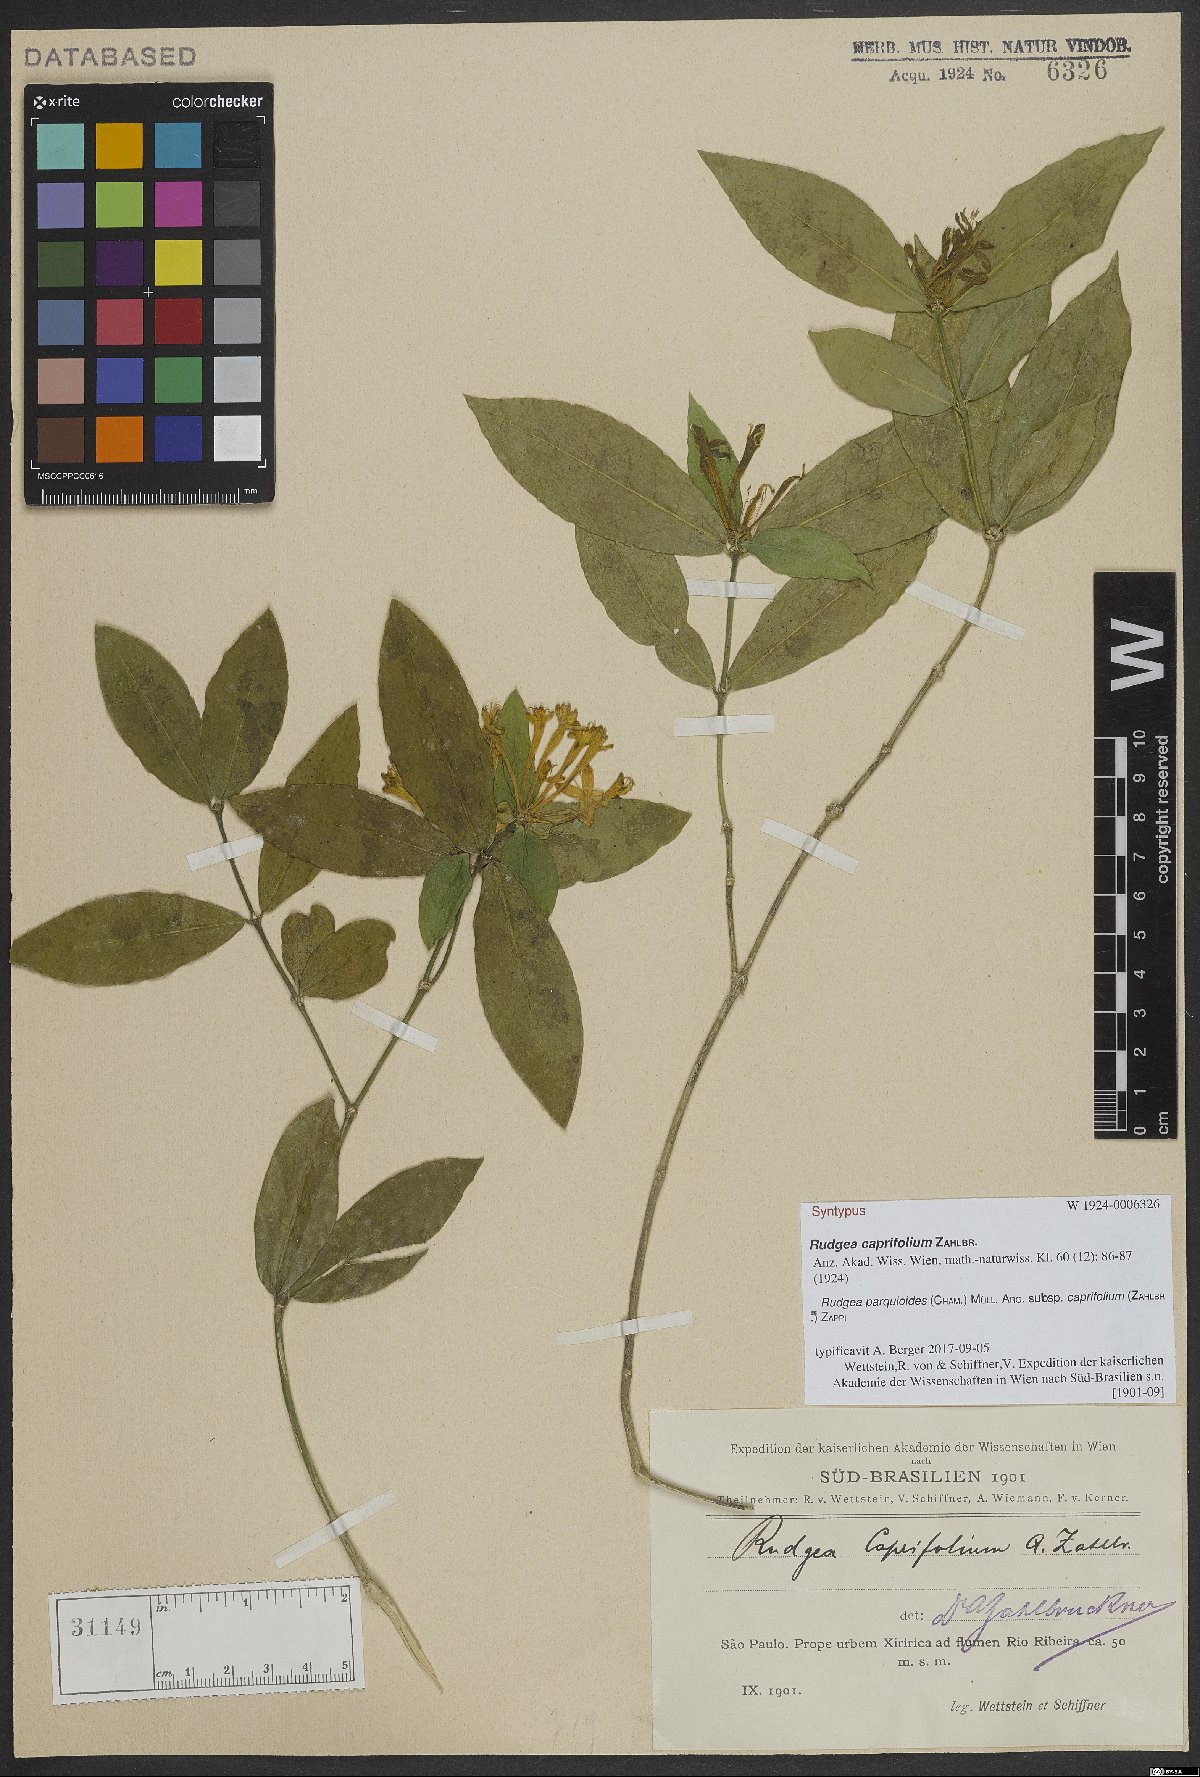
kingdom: Plantae
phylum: Tracheophyta
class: Magnoliopsida
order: Gentianales
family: Rubiaceae
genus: Rudgea
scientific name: Rudgea parquioides
